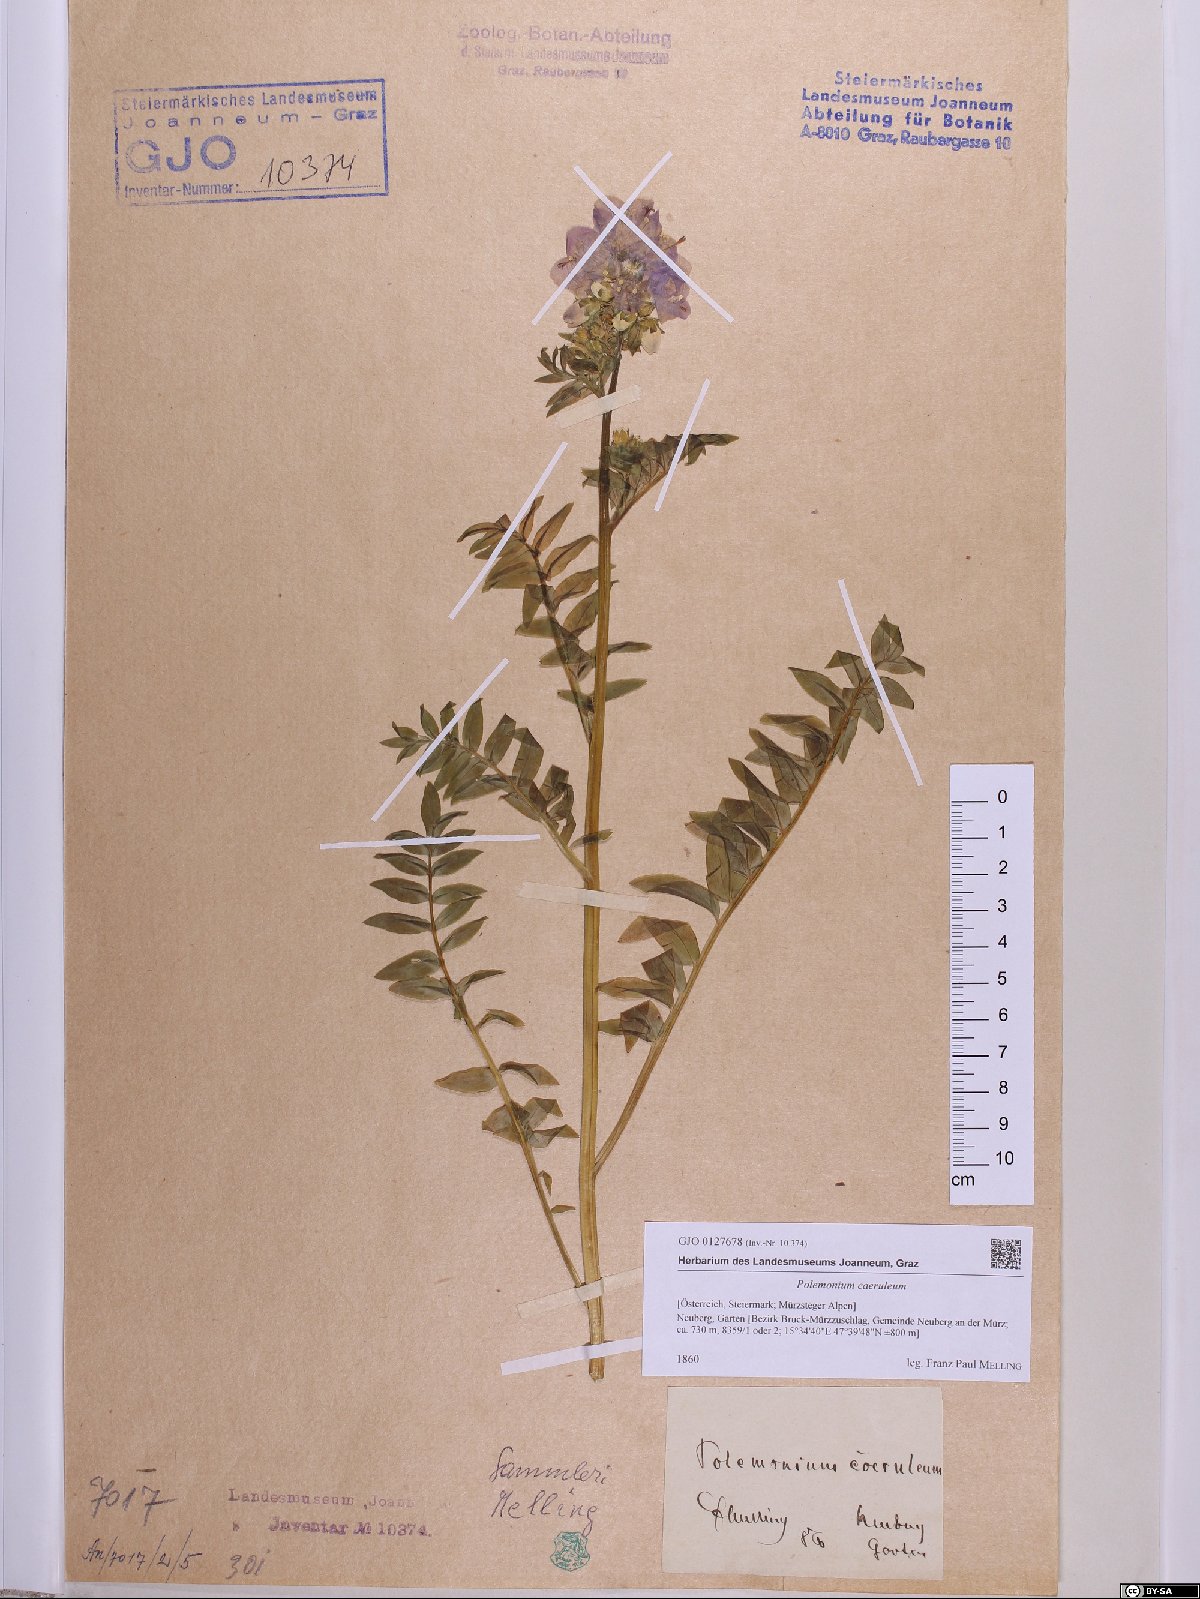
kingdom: Plantae
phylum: Tracheophyta
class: Magnoliopsida
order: Ericales
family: Polemoniaceae
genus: Polemonium
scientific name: Polemonium caeruleum
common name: Jacob's-ladder
